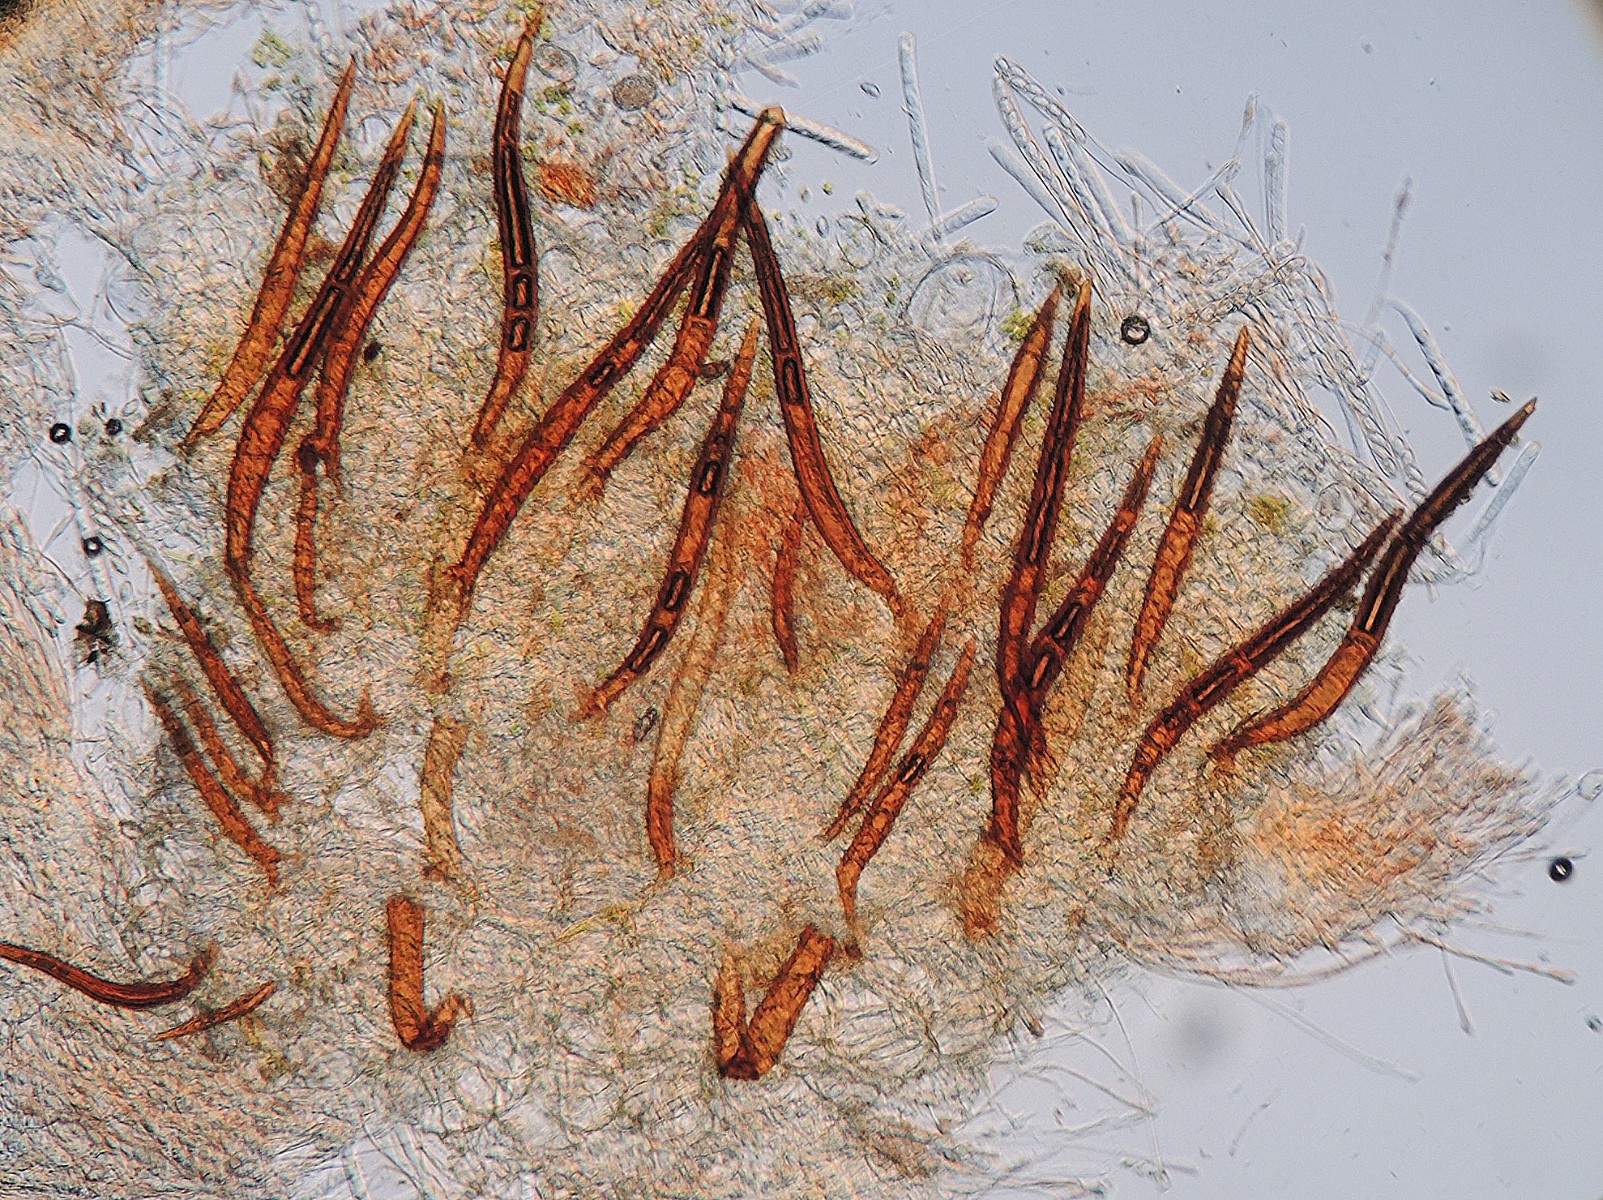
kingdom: Fungi
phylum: Ascomycota
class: Pezizomycetes
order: Pezizales
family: Pyronemataceae
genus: Scutellinia
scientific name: Scutellinia hirta
